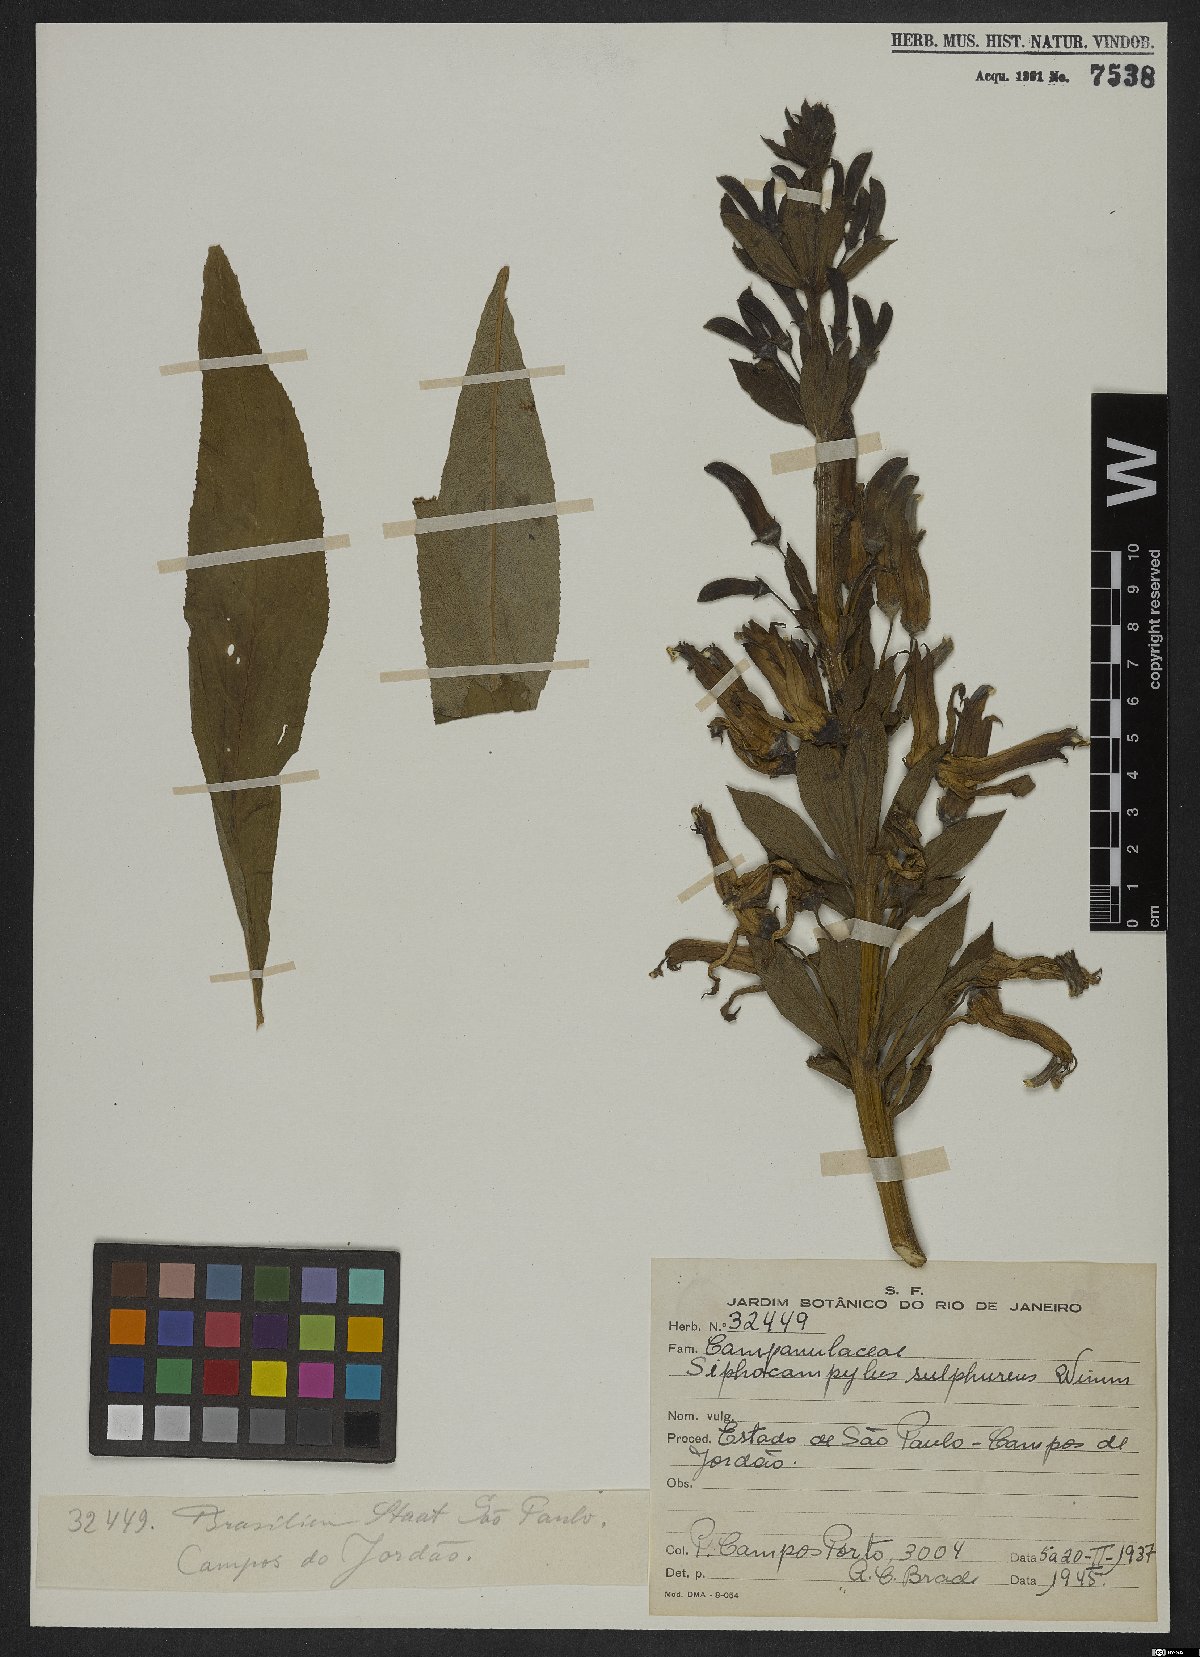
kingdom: Plantae
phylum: Tracheophyta
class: Magnoliopsida
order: Asterales
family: Campanulaceae
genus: Siphocampylus
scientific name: Siphocampylus sulfureus
